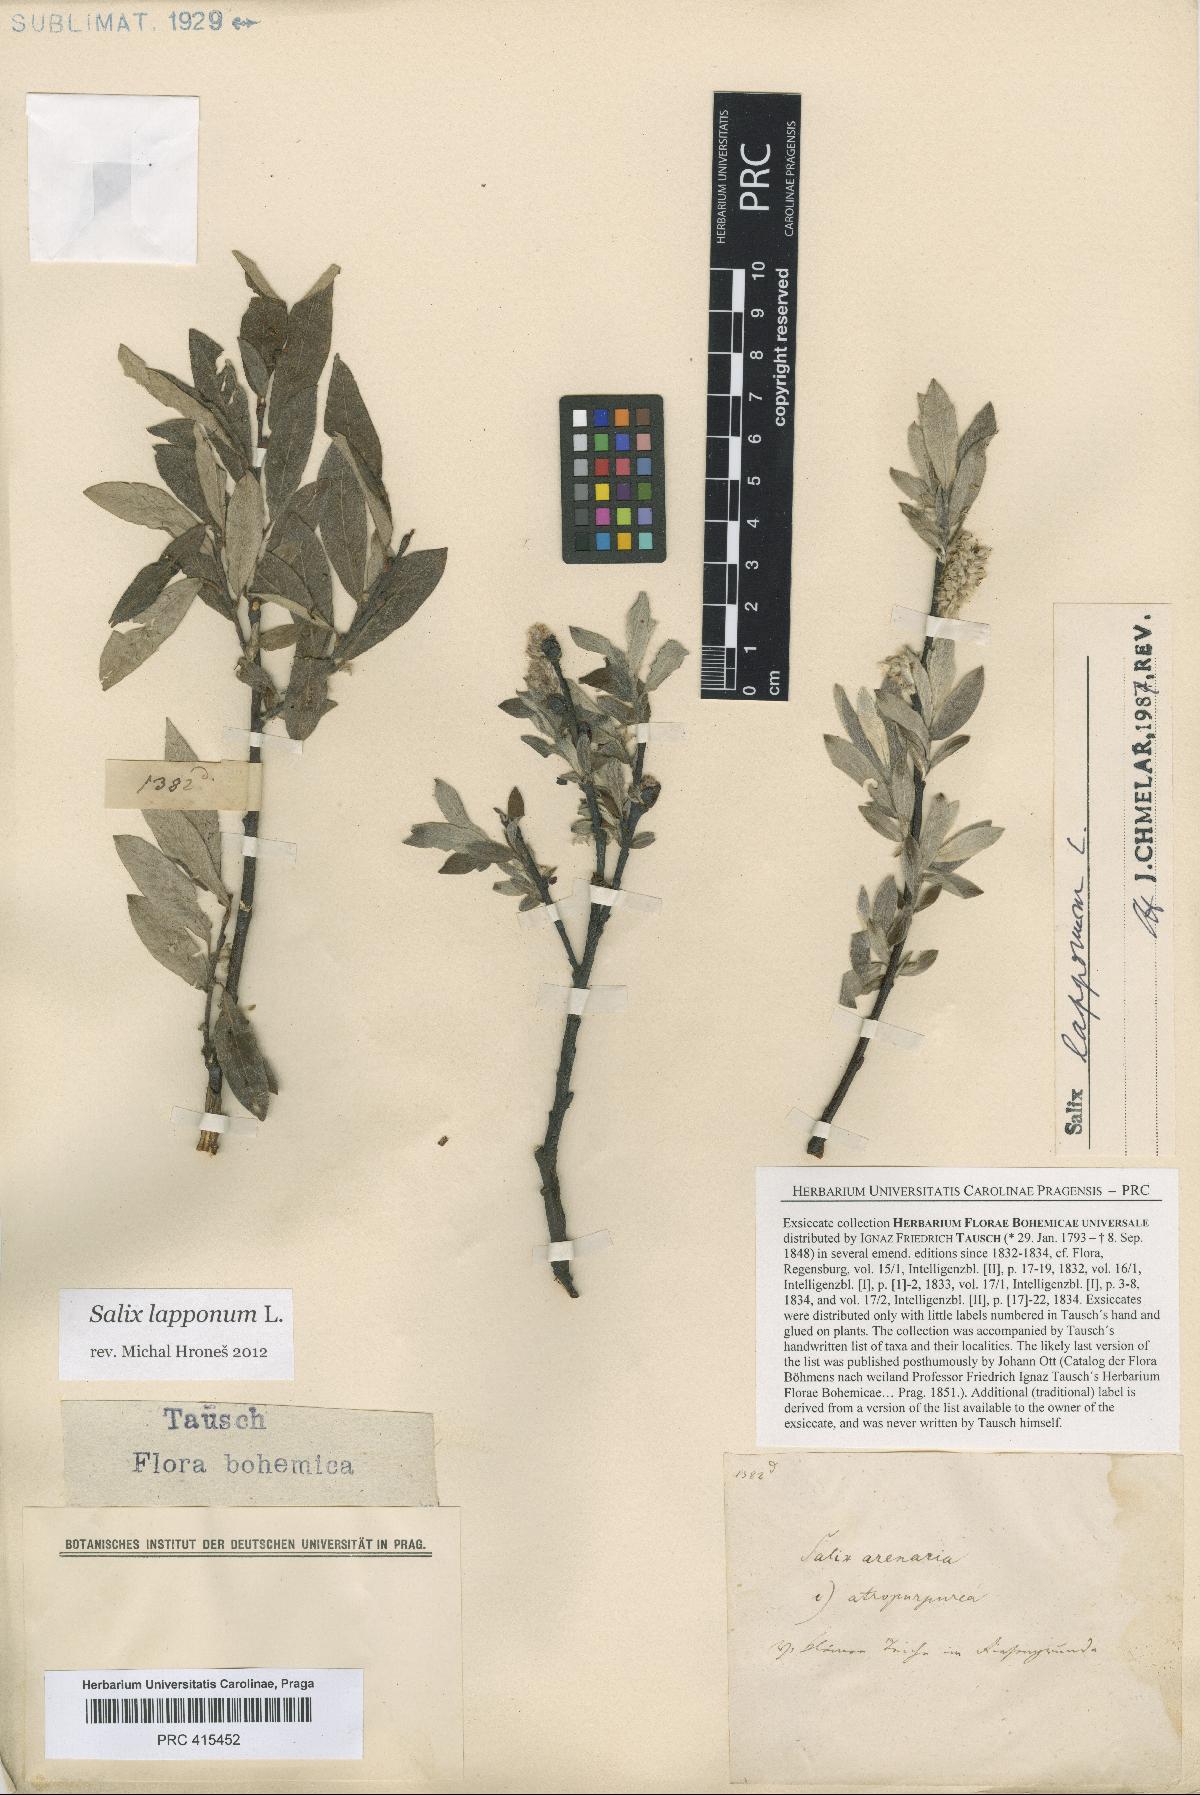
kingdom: Plantae
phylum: Tracheophyta
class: Magnoliopsida
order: Malpighiales
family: Salicaceae
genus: Salix
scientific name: Salix lapponum
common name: Downy willow
